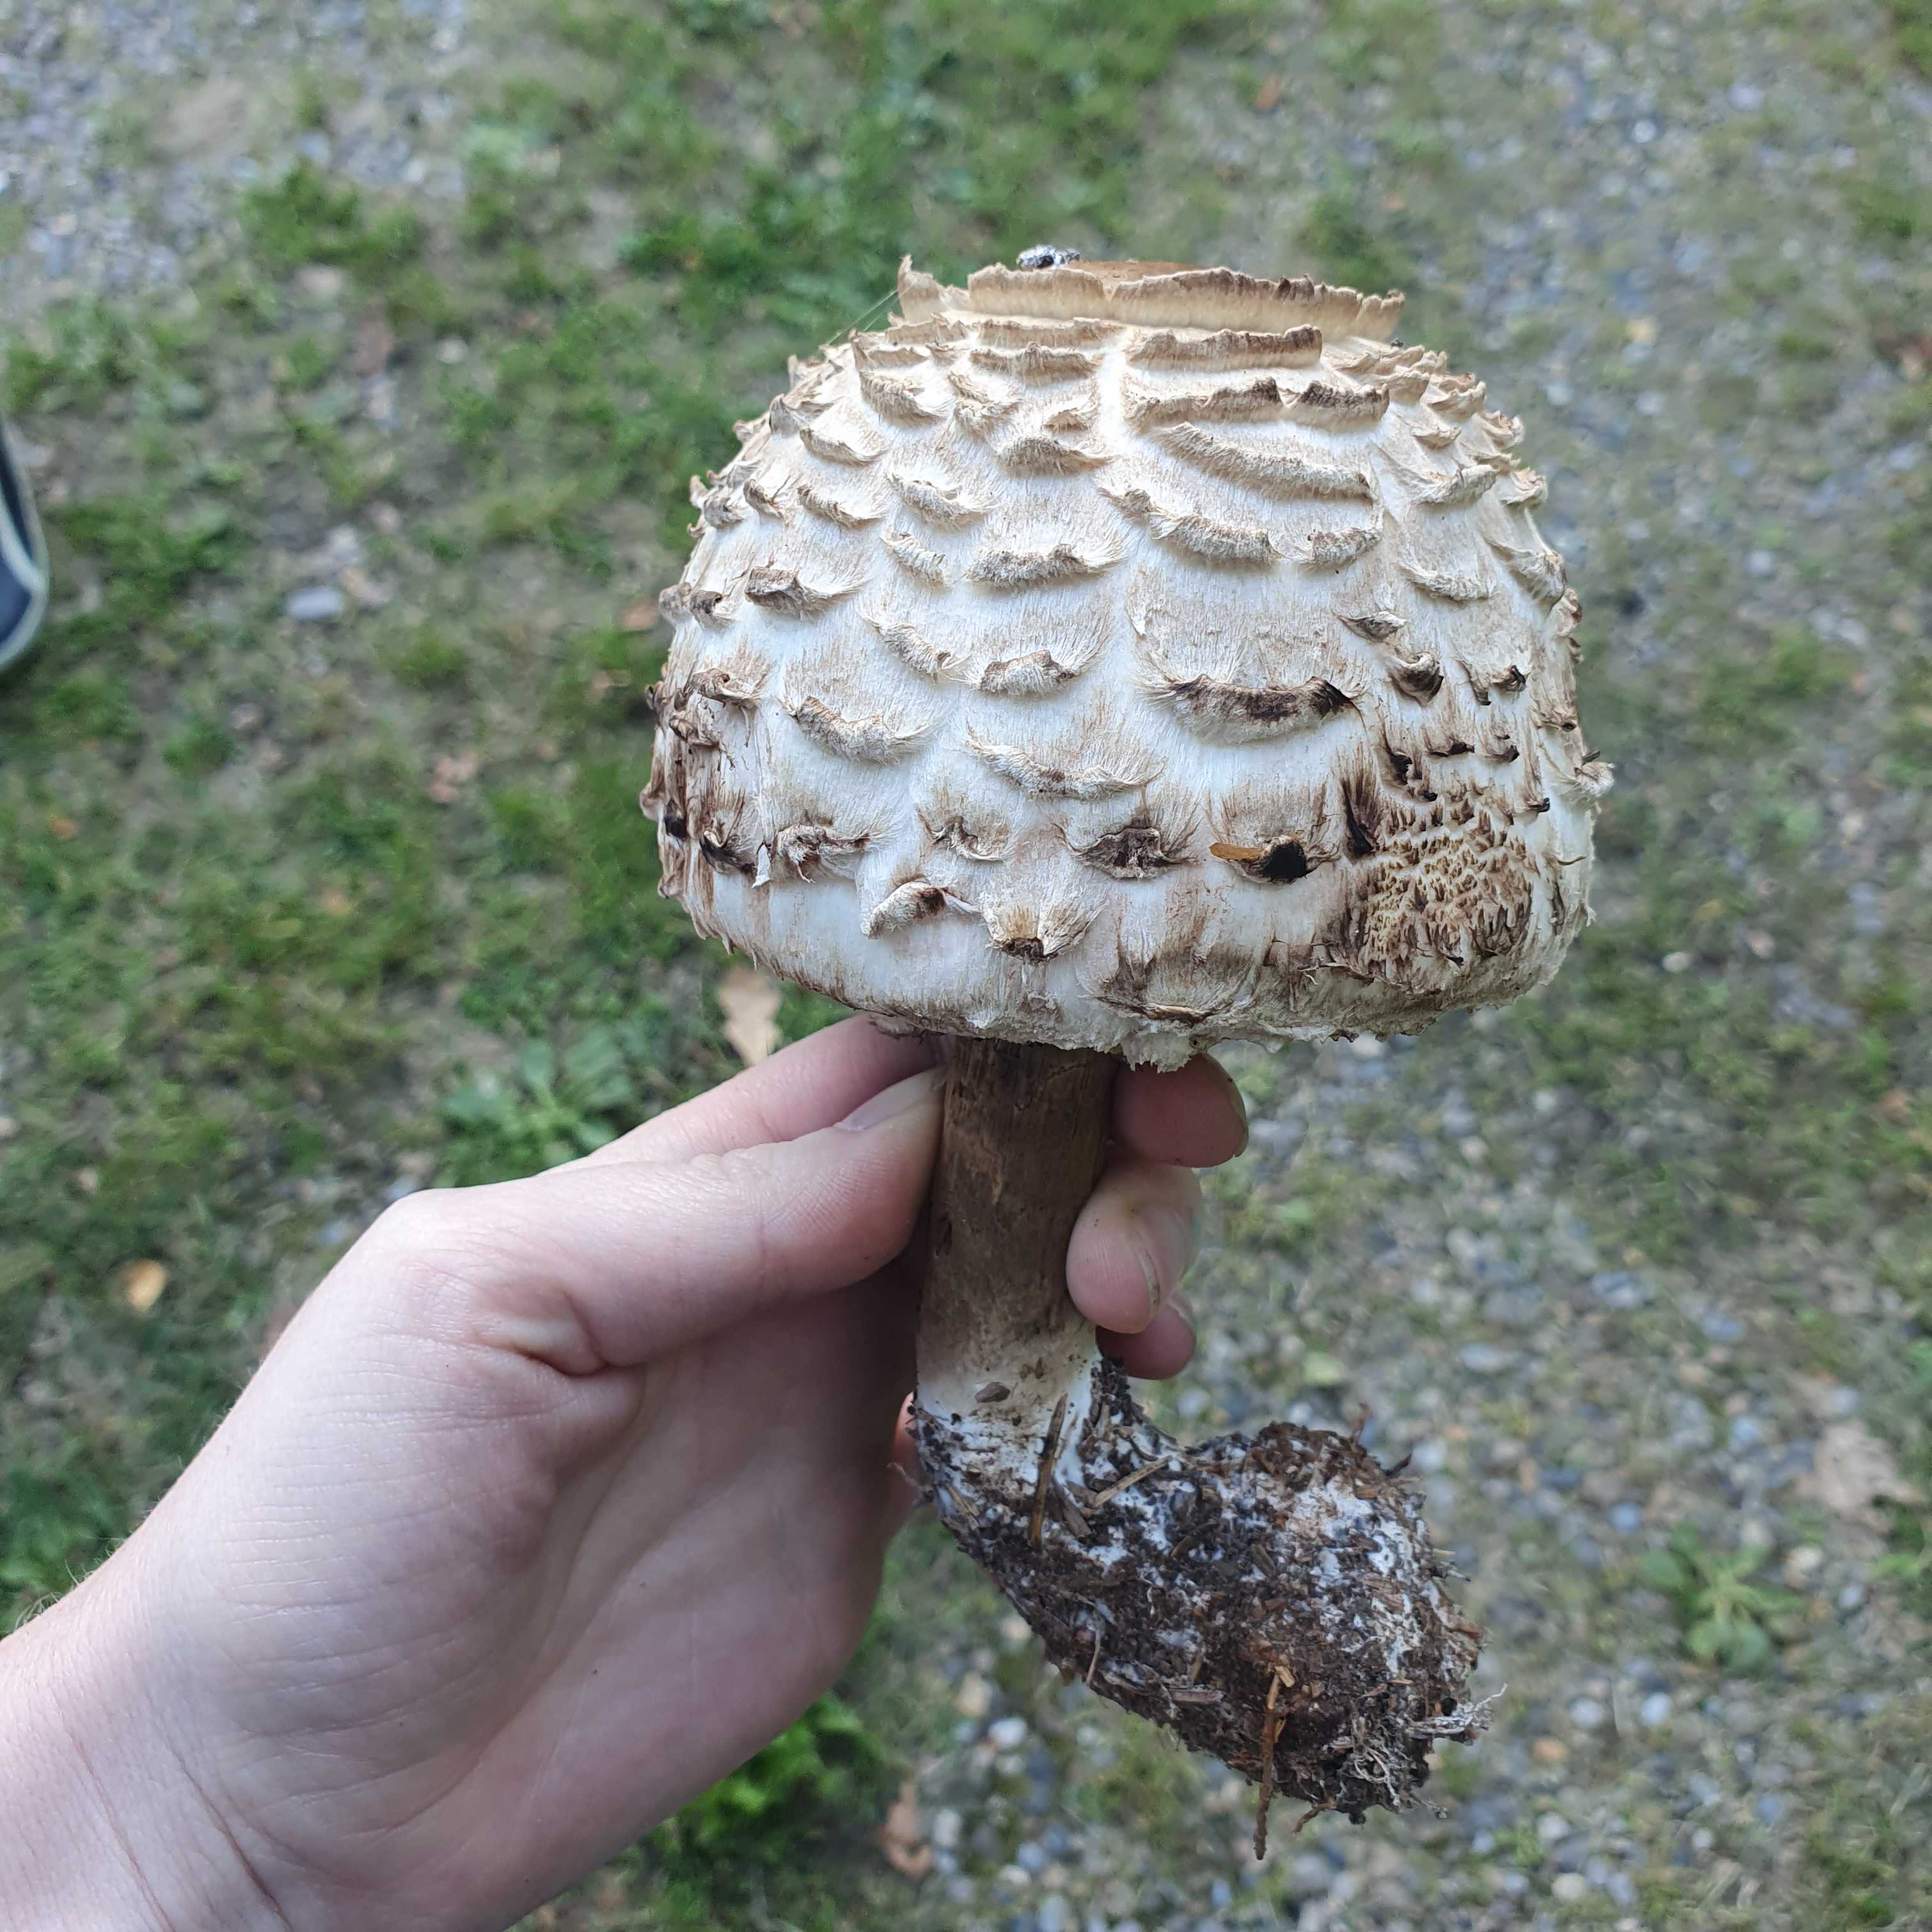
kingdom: Fungi
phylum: Basidiomycota
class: Agaricomycetes
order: Agaricales
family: Agaricaceae
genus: Chlorophyllum
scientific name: Chlorophyllum
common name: rabarberhat
